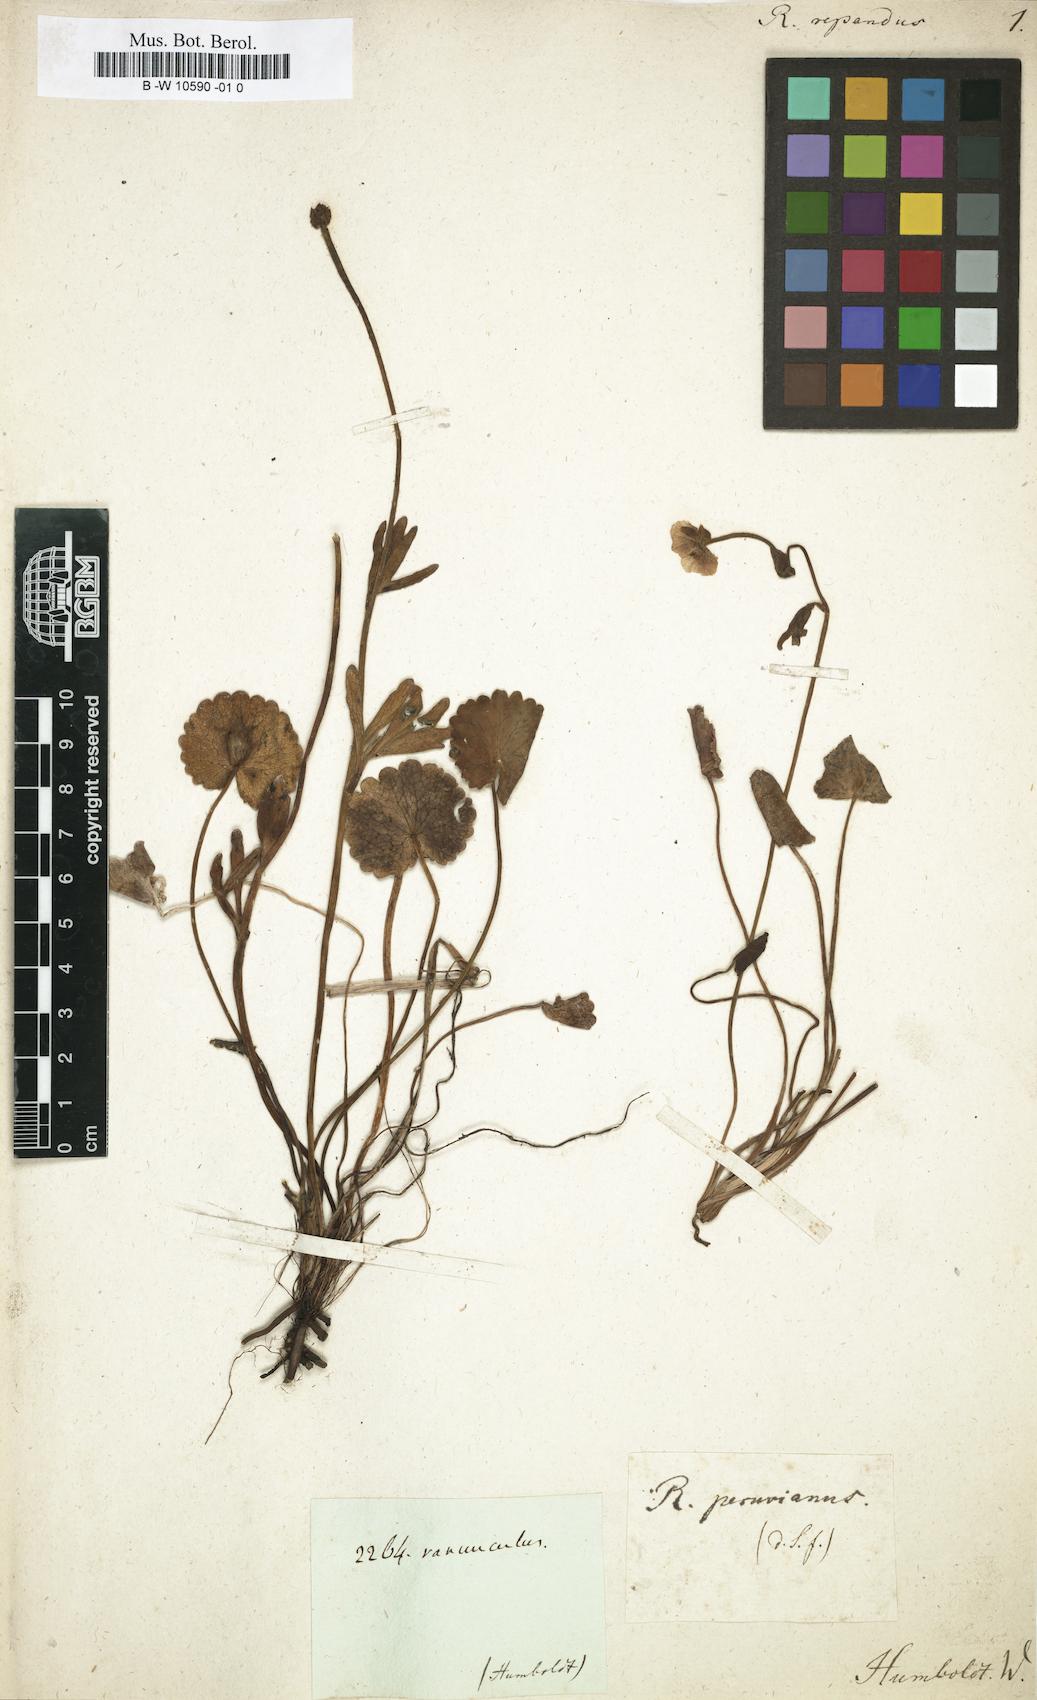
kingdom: Plantae
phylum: Tracheophyta
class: Magnoliopsida
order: Ranunculales
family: Ranunculaceae
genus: Ranunculus
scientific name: Ranunculus
